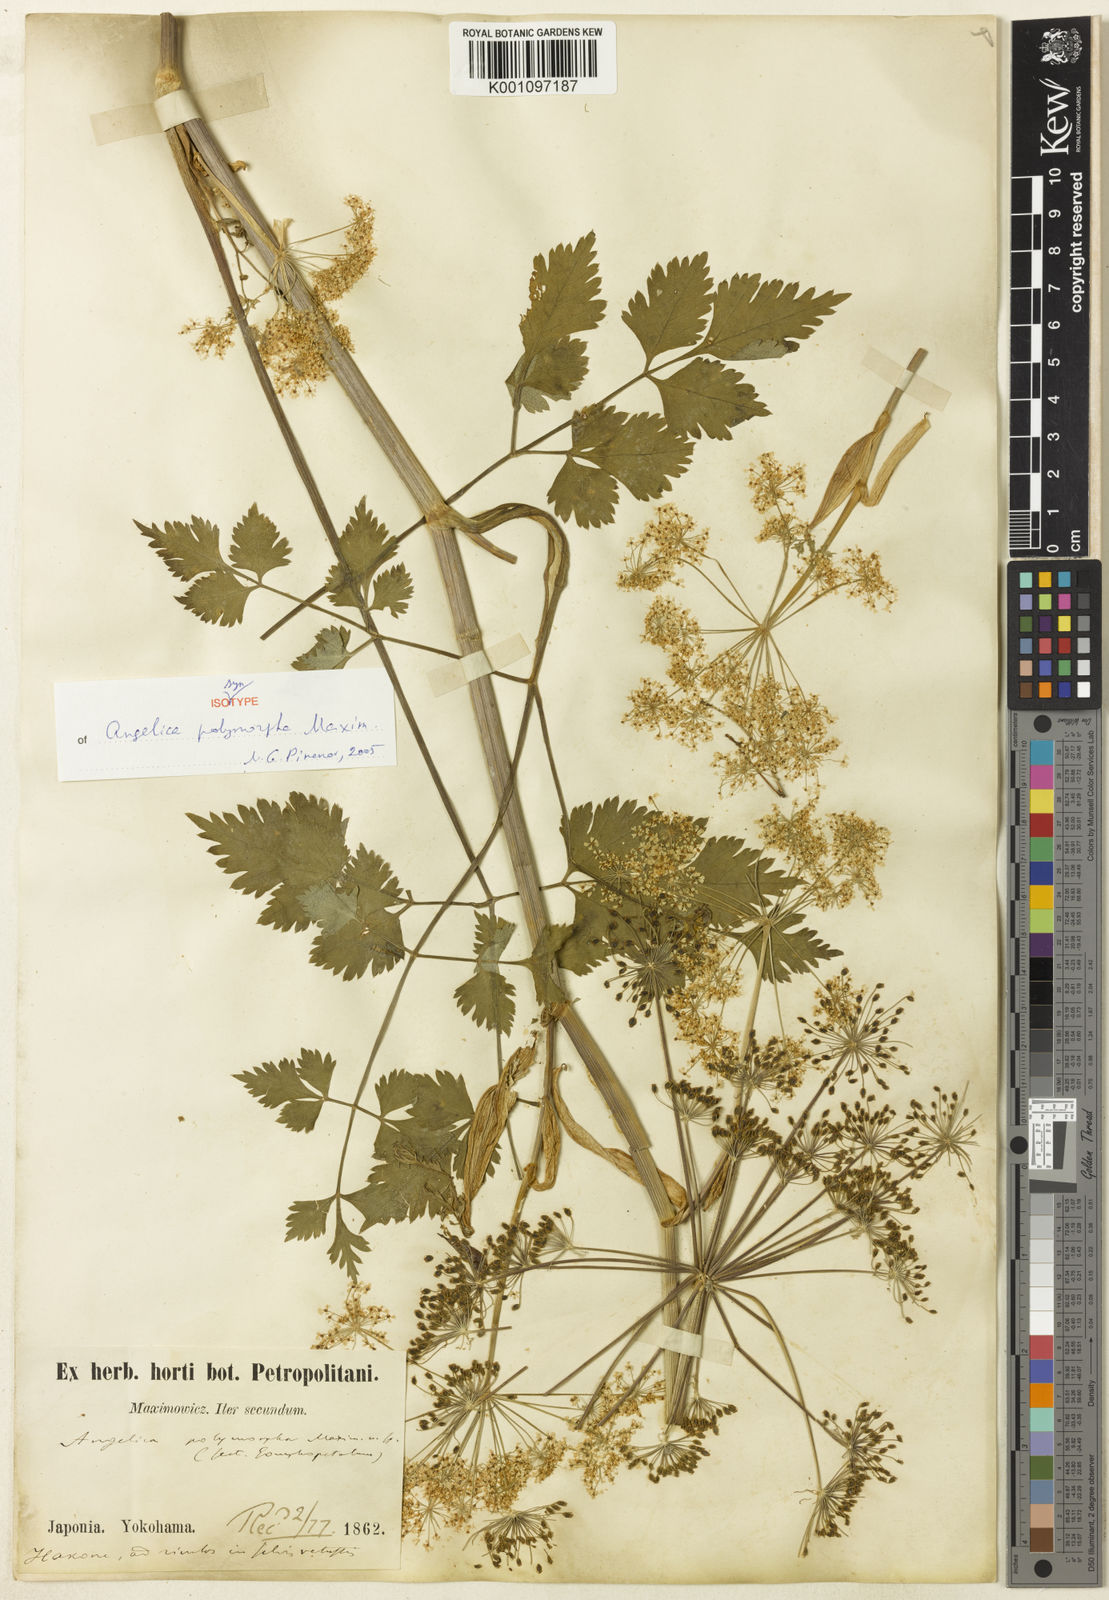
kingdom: Plantae
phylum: Tracheophyta
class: Magnoliopsida
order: Apiales
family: Apiaceae
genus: Angelica
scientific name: Angelica polymorpha
